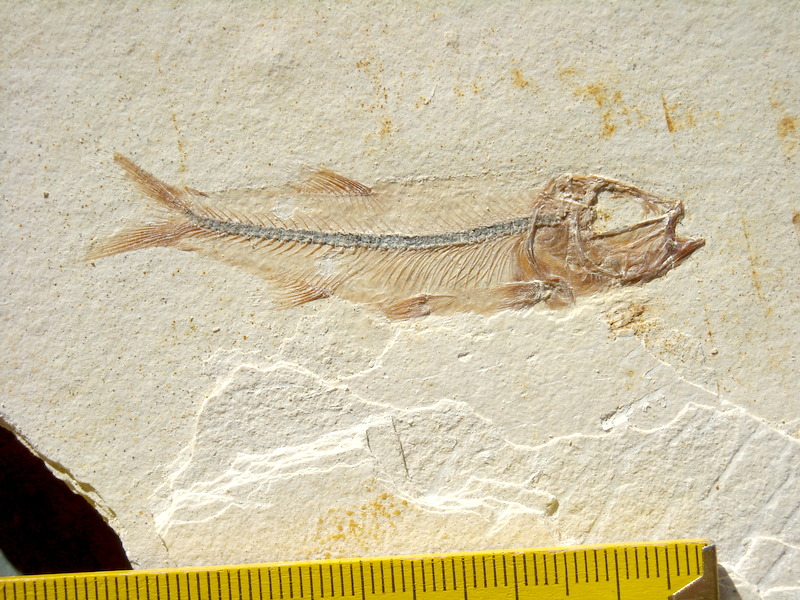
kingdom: Animalia
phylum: Chordata
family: Ascalaboidae
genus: Ebertichthys
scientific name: Ebertichthys ettlingensis
